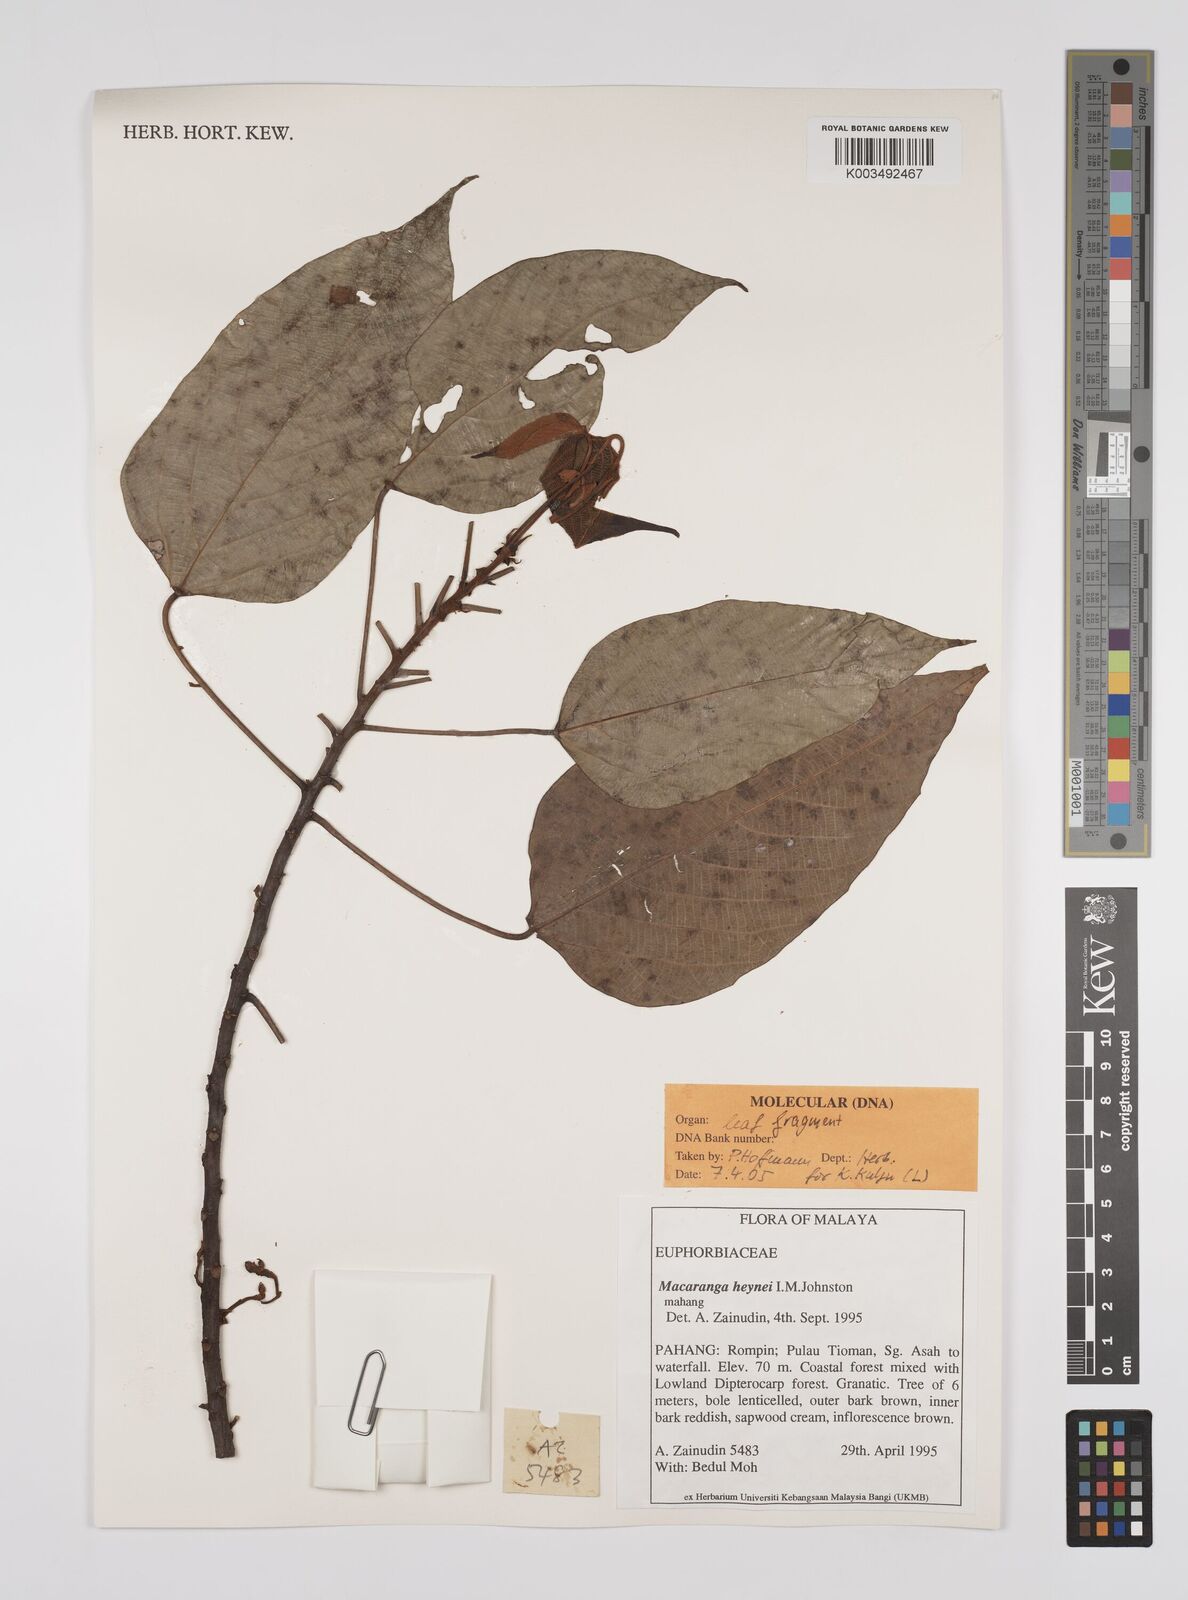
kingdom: Plantae
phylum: Tracheophyta
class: Magnoliopsida
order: Malpighiales
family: Euphorbiaceae
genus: Macaranga
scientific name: Macaranga heynei
